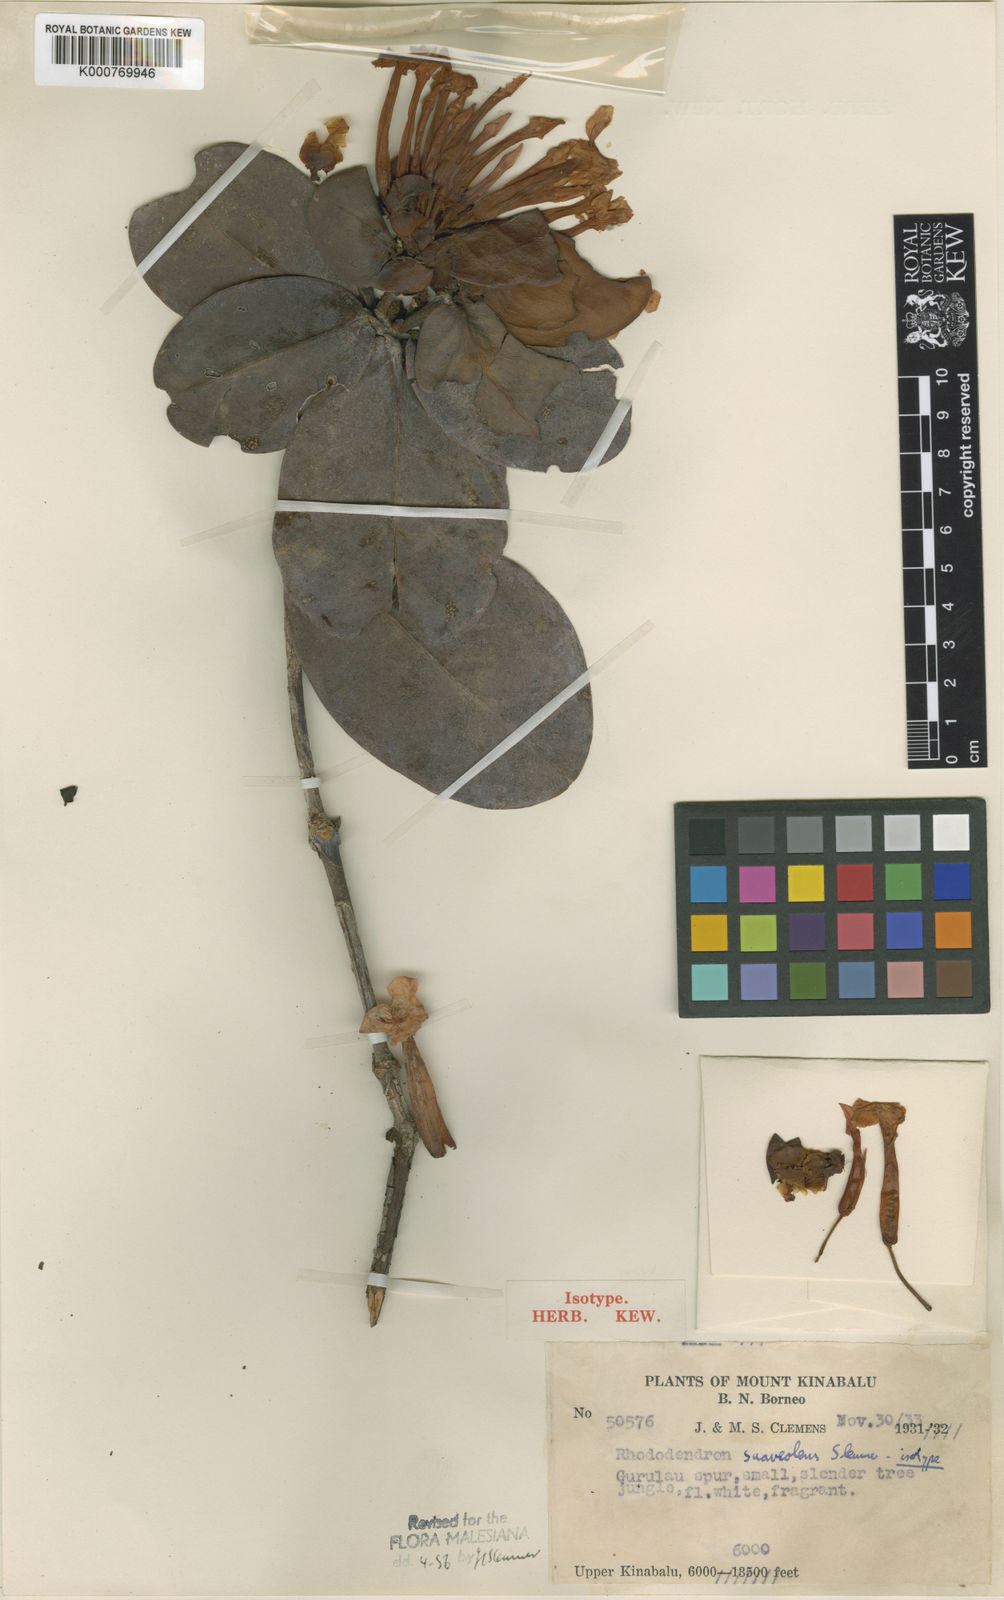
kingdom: Plantae
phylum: Tracheophyta
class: Magnoliopsida
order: Ericales
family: Ericaceae
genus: Rhododendron
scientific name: Rhododendron suaveolens
